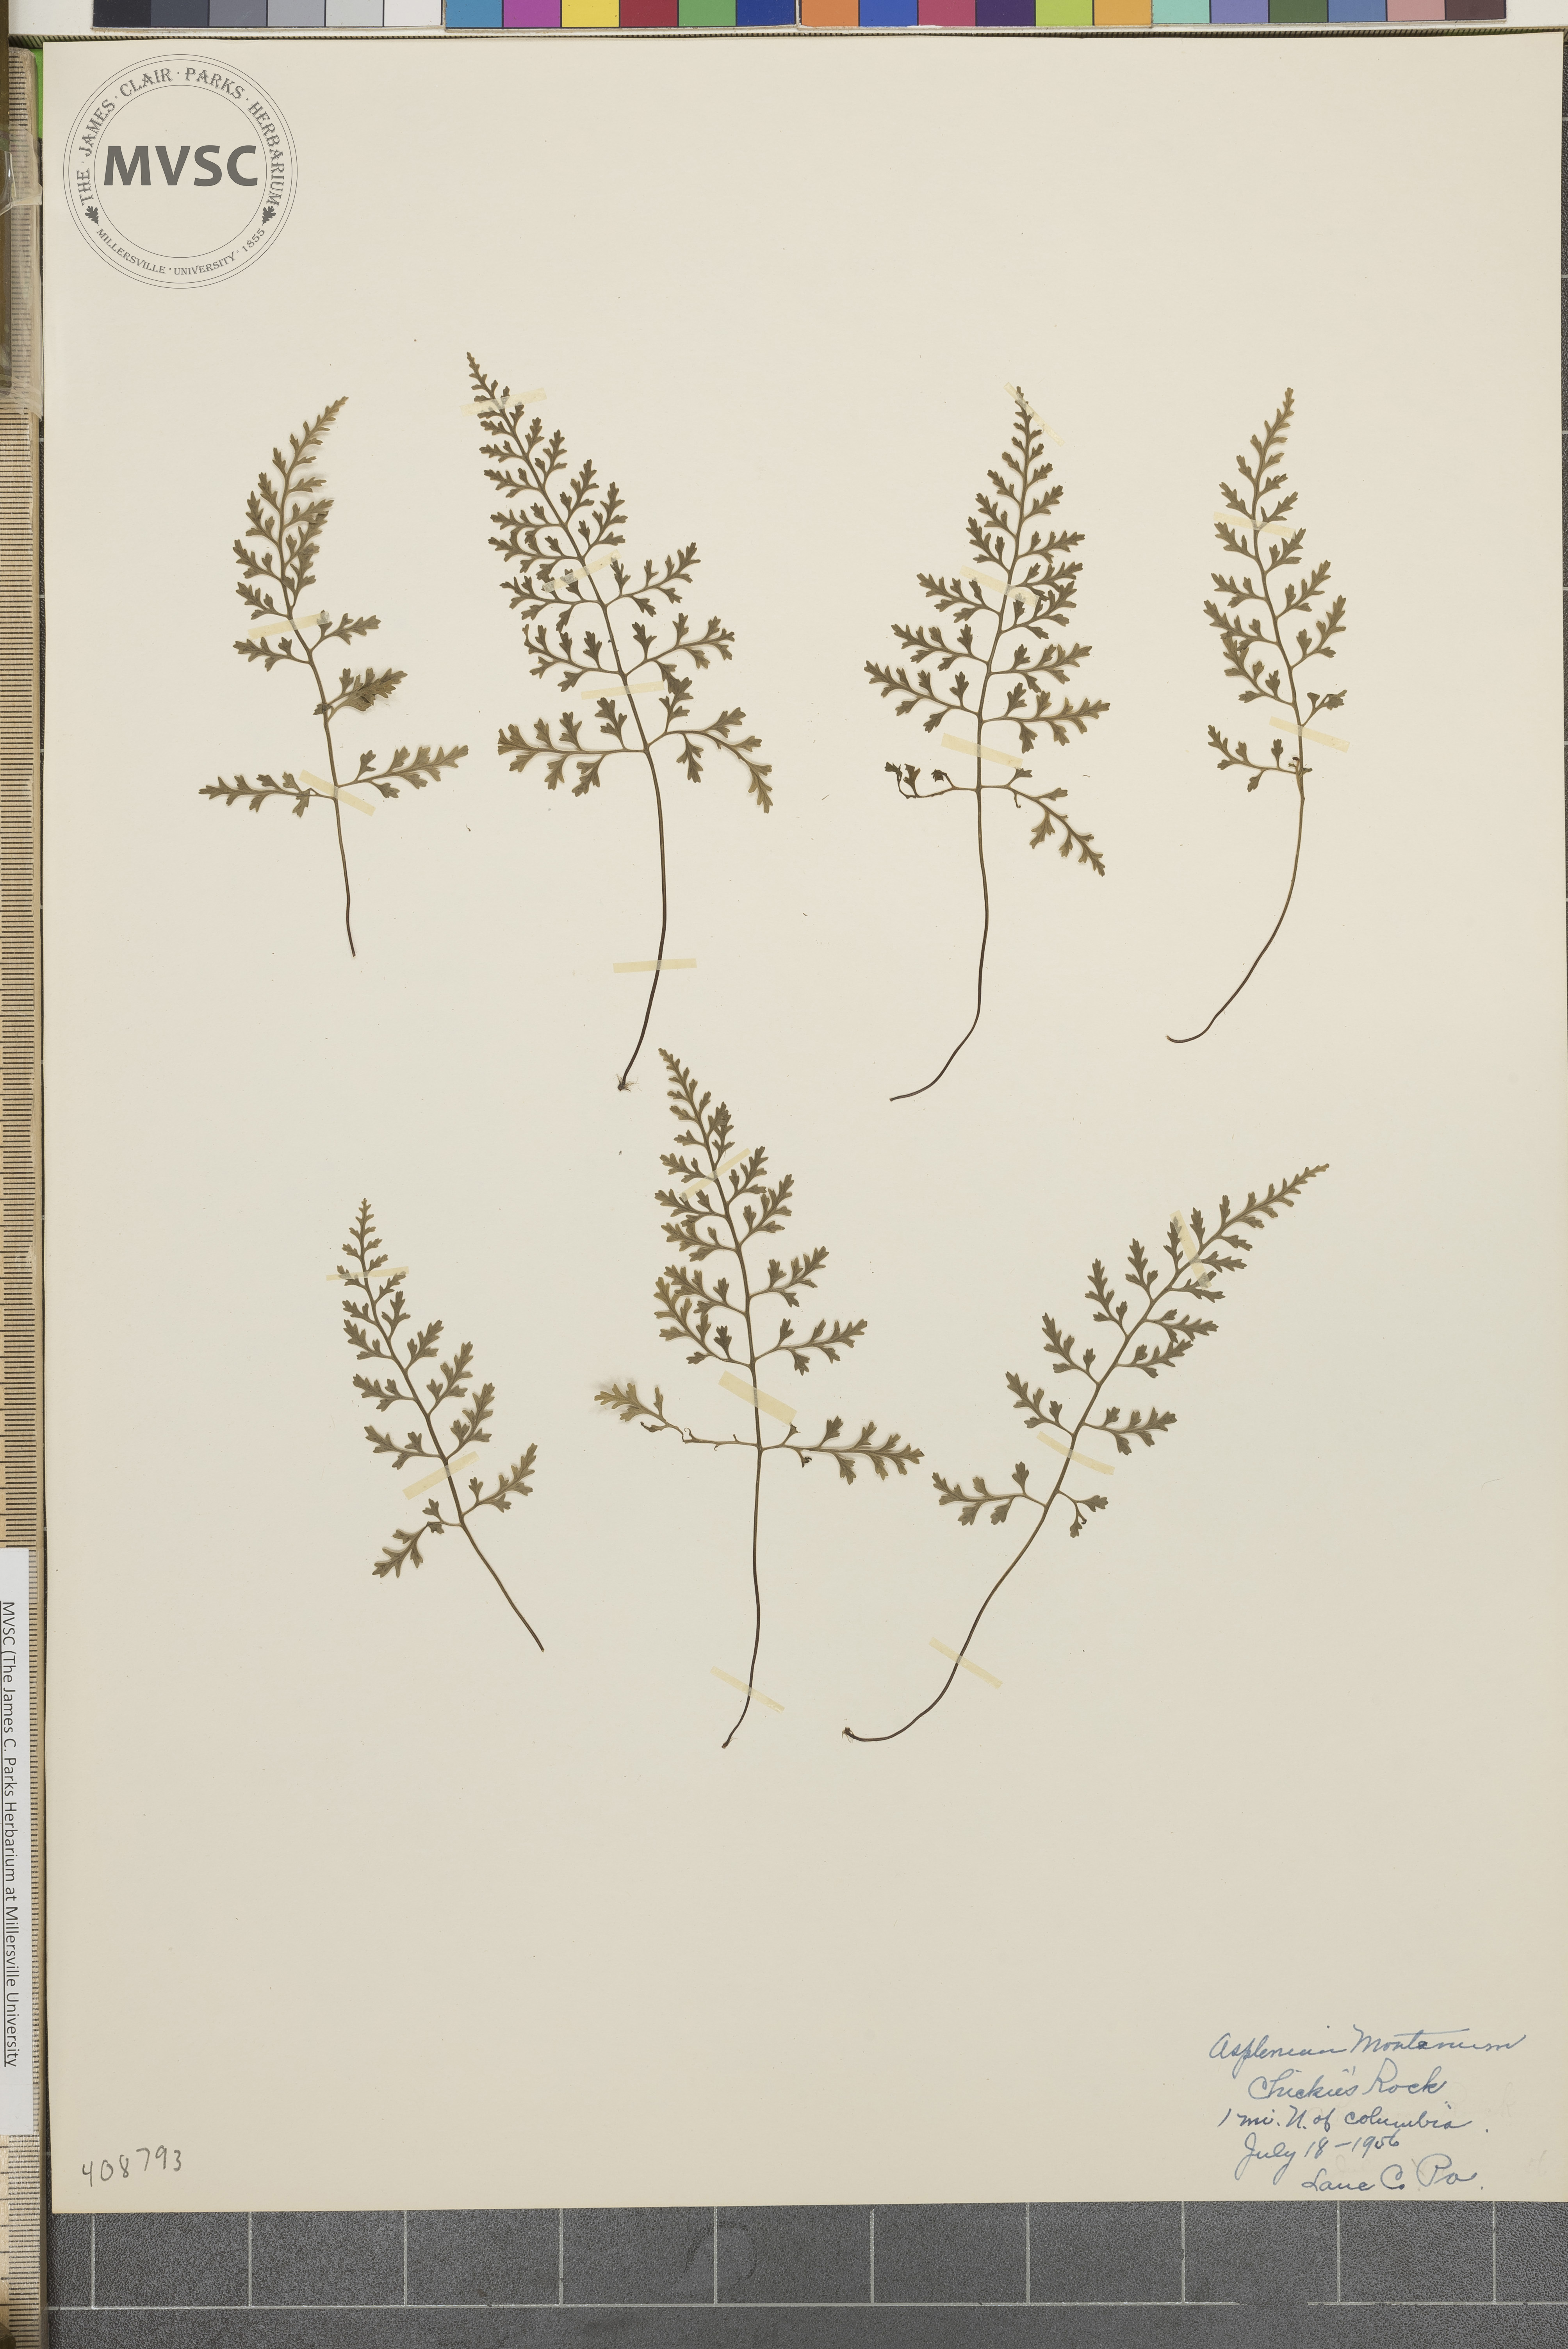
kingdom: Plantae
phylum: Tracheophyta
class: Polypodiopsida
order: Polypodiales
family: Aspleniaceae
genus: Asplenium
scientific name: Asplenium montanum
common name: Mountain spleenwort
